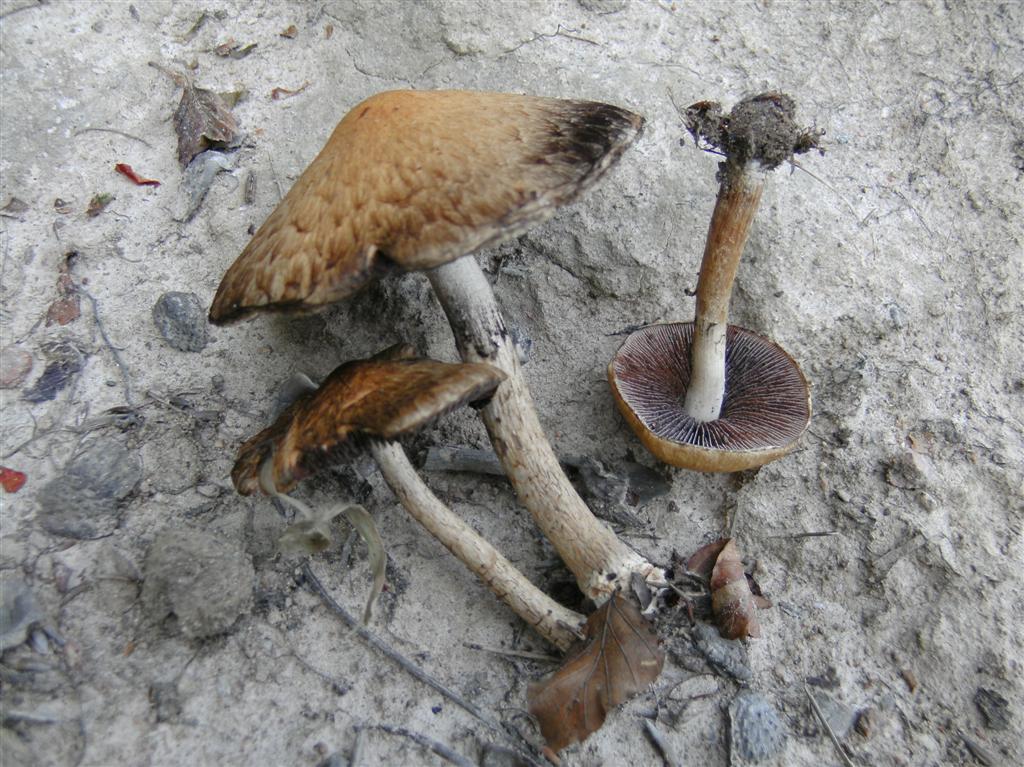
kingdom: Fungi
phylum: Basidiomycota
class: Agaricomycetes
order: Agaricales
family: Psathyrellaceae
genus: Lacrymaria
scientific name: Lacrymaria lacrymabunda
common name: grædende mørkhat
